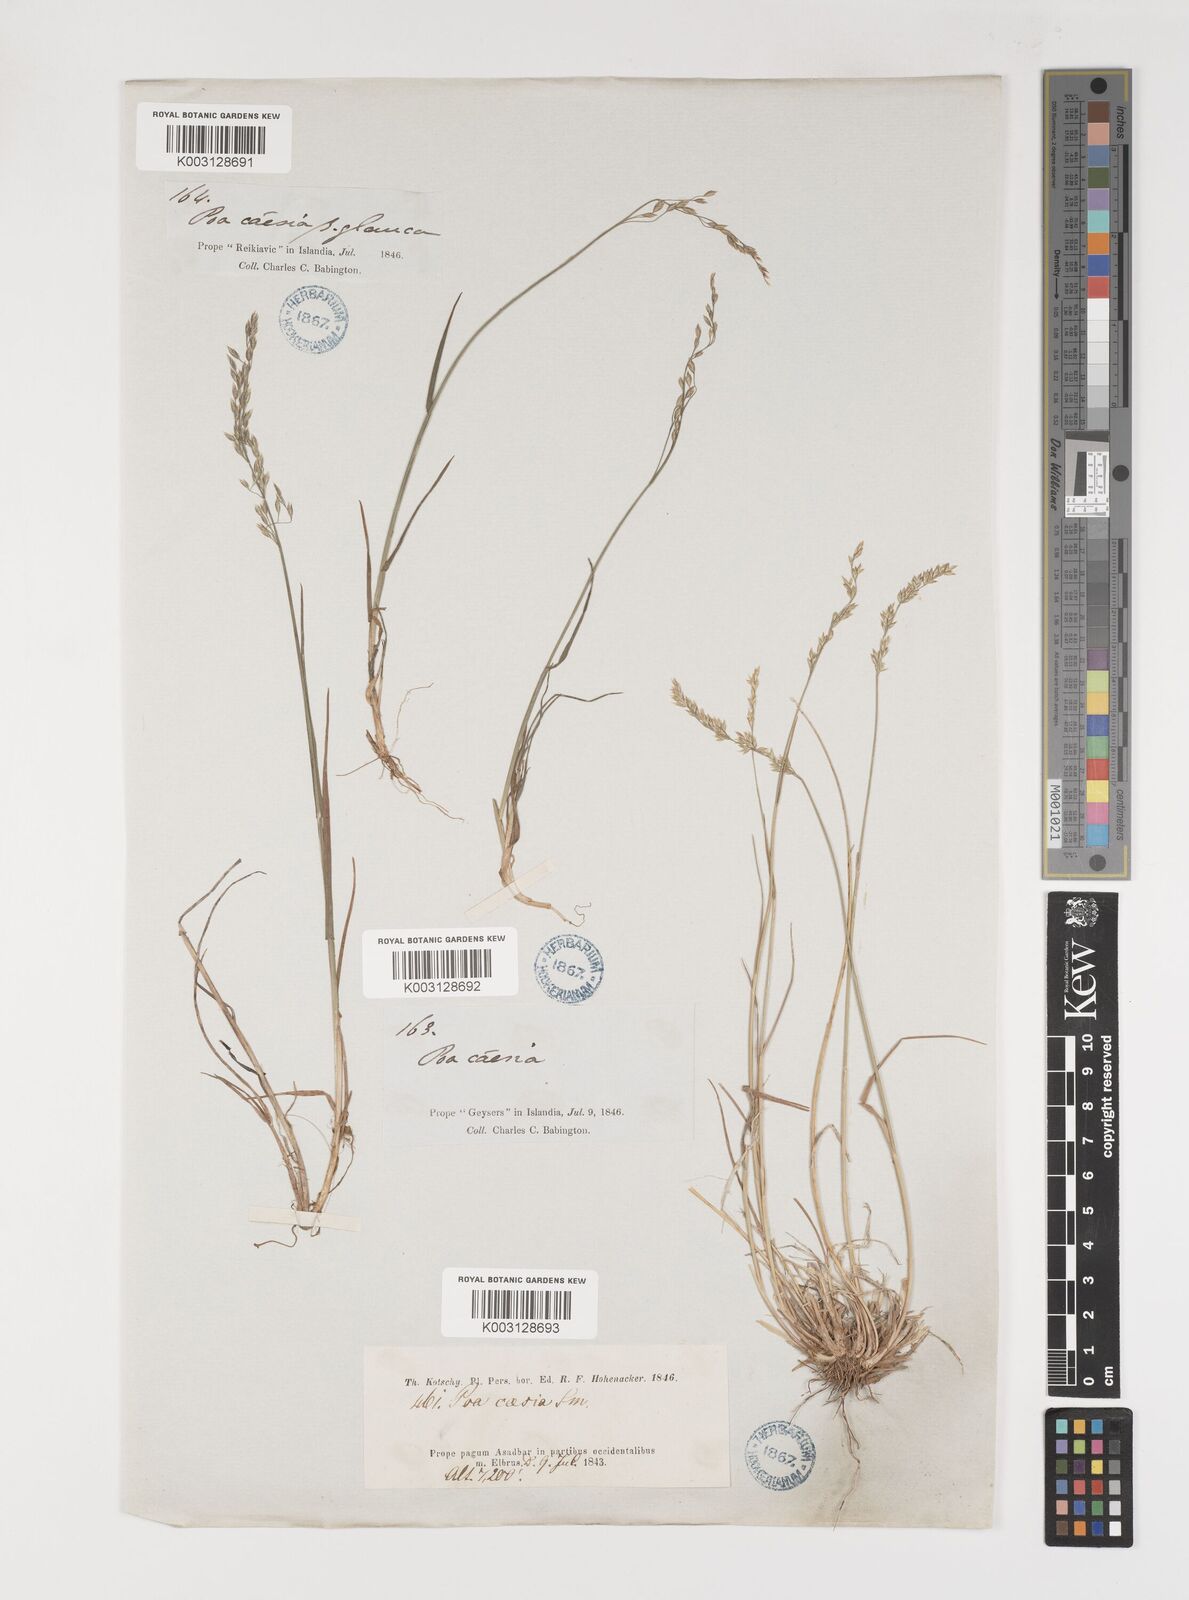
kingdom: Plantae
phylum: Tracheophyta
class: Liliopsida
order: Poales
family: Poaceae
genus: Poa
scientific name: Poa araratica
